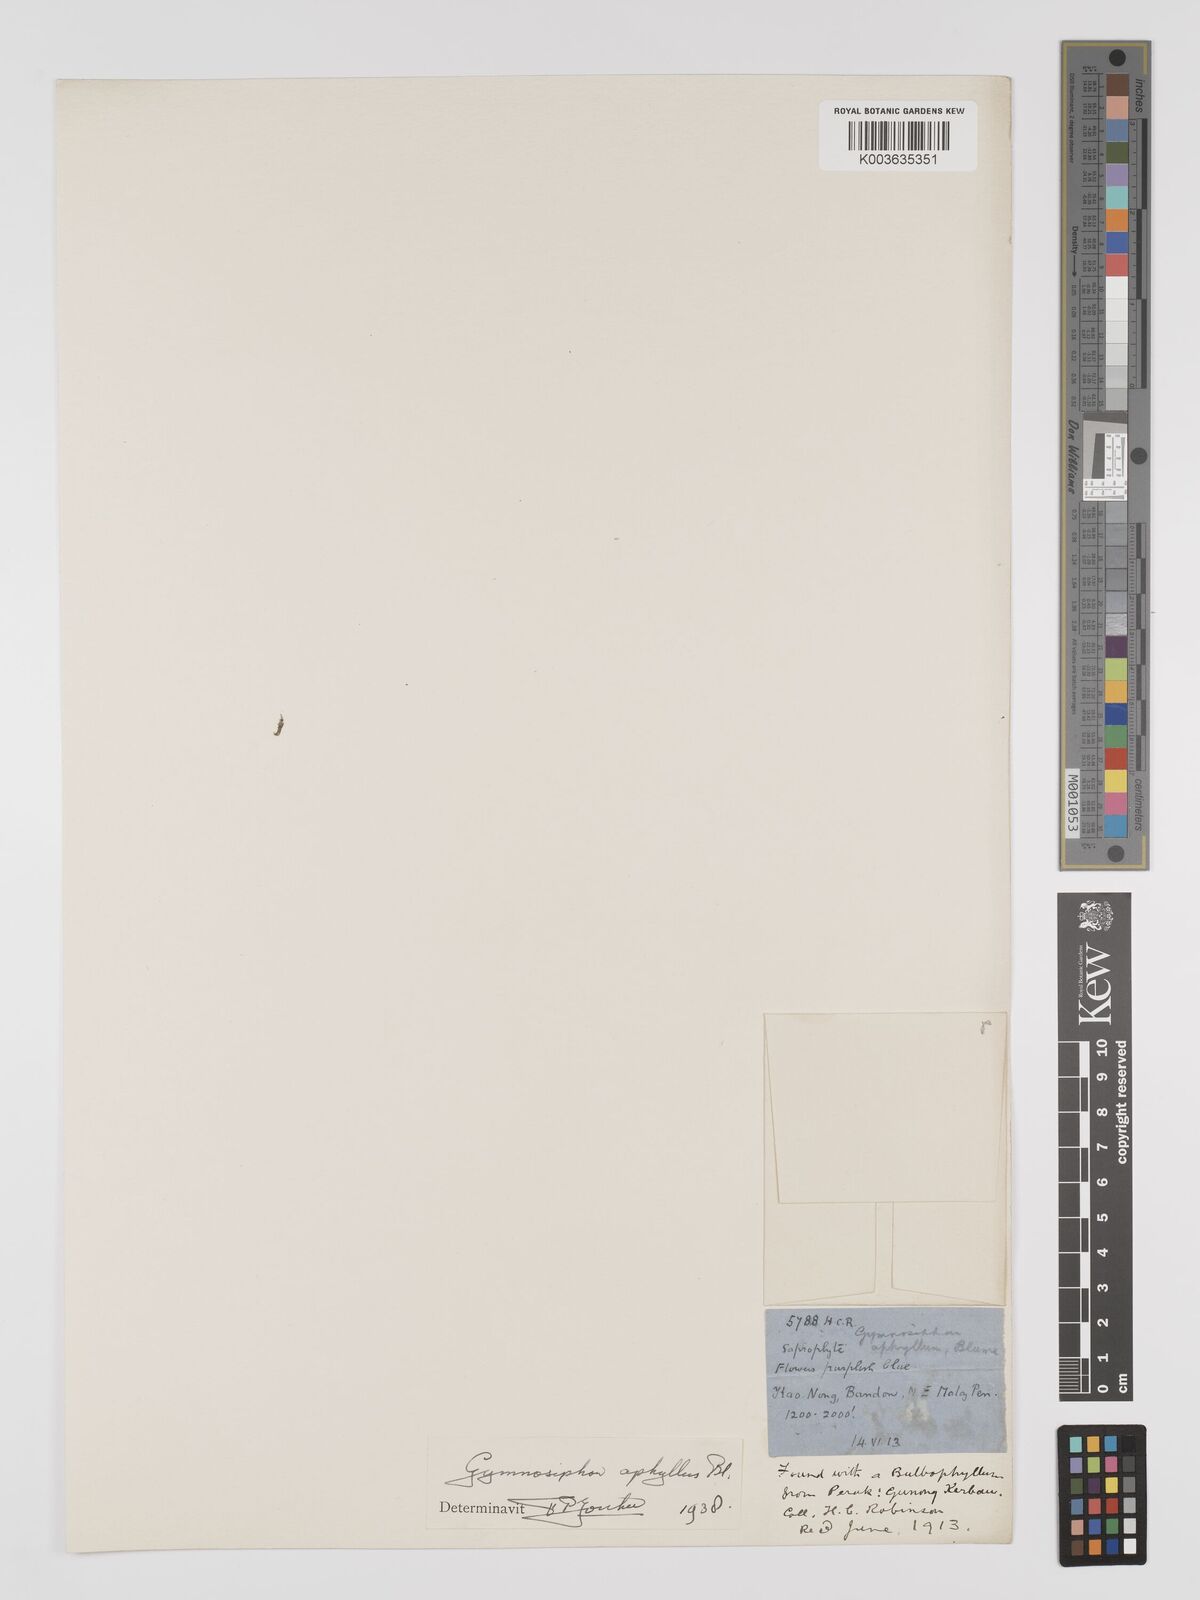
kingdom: Plantae
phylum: Tracheophyta
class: Liliopsida
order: Dioscoreales
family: Burmanniaceae
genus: Gymnosiphon
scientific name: Gymnosiphon aphyllus
